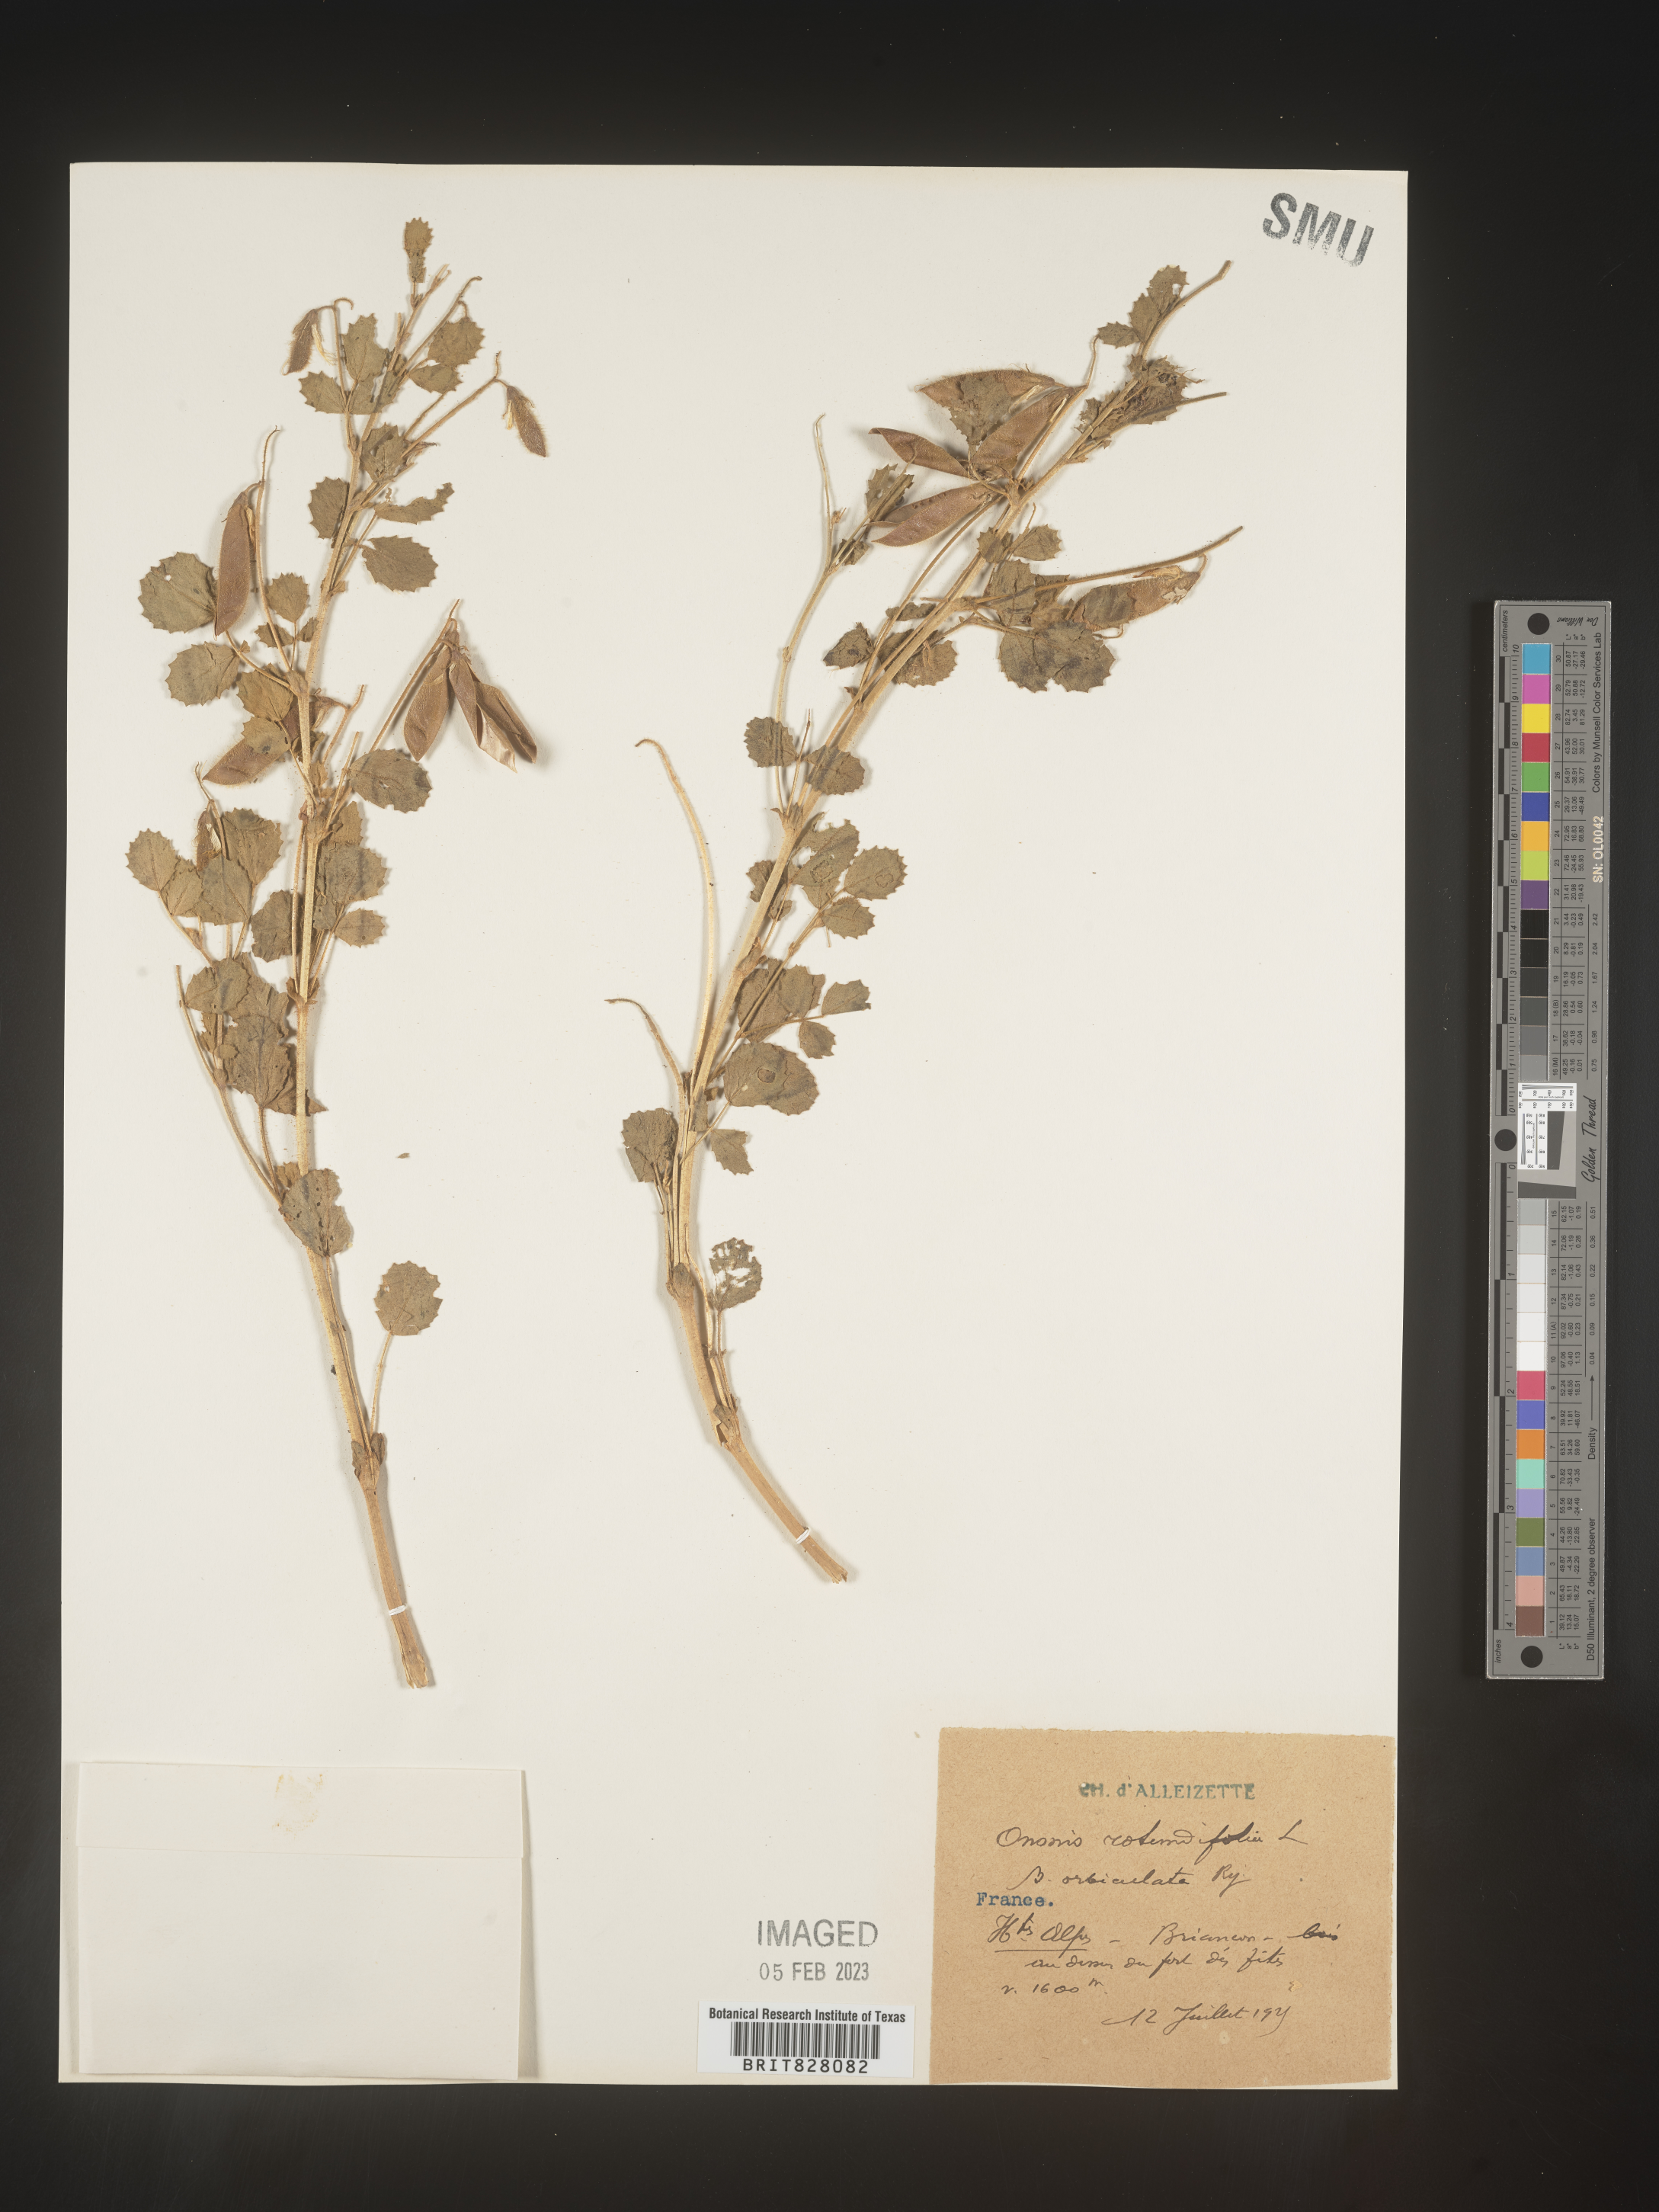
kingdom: Plantae
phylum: Tracheophyta
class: Magnoliopsida
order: Fabales
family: Fabaceae
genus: Ononis
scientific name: Ononis
